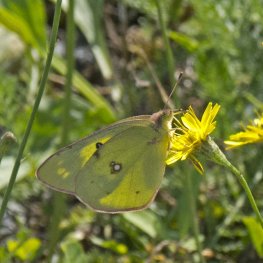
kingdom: Animalia
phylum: Arthropoda
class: Insecta
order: Lepidoptera
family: Pieridae
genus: Colias
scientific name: Colias philodice
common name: Clouded Sulphur
